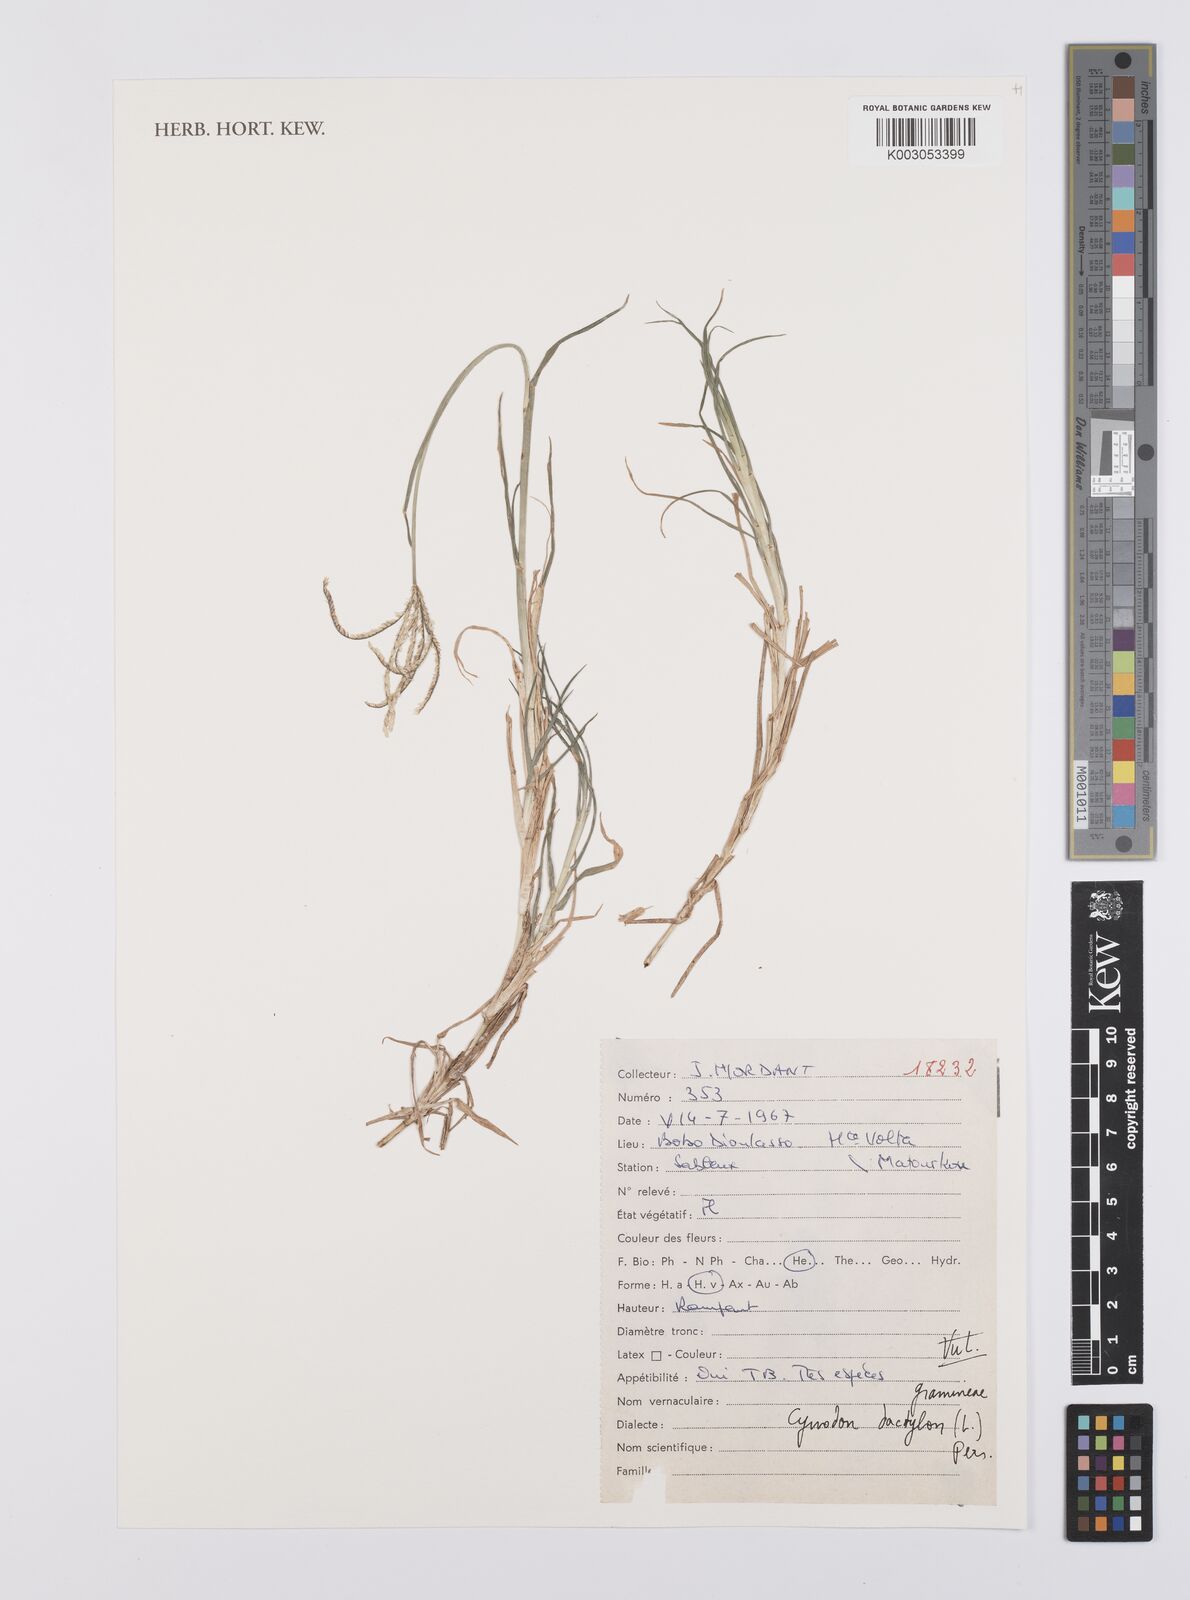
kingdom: Plantae
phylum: Tracheophyta
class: Liliopsida
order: Poales
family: Poaceae
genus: Cynodon
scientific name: Cynodon dactylon
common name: Bermuda grass
